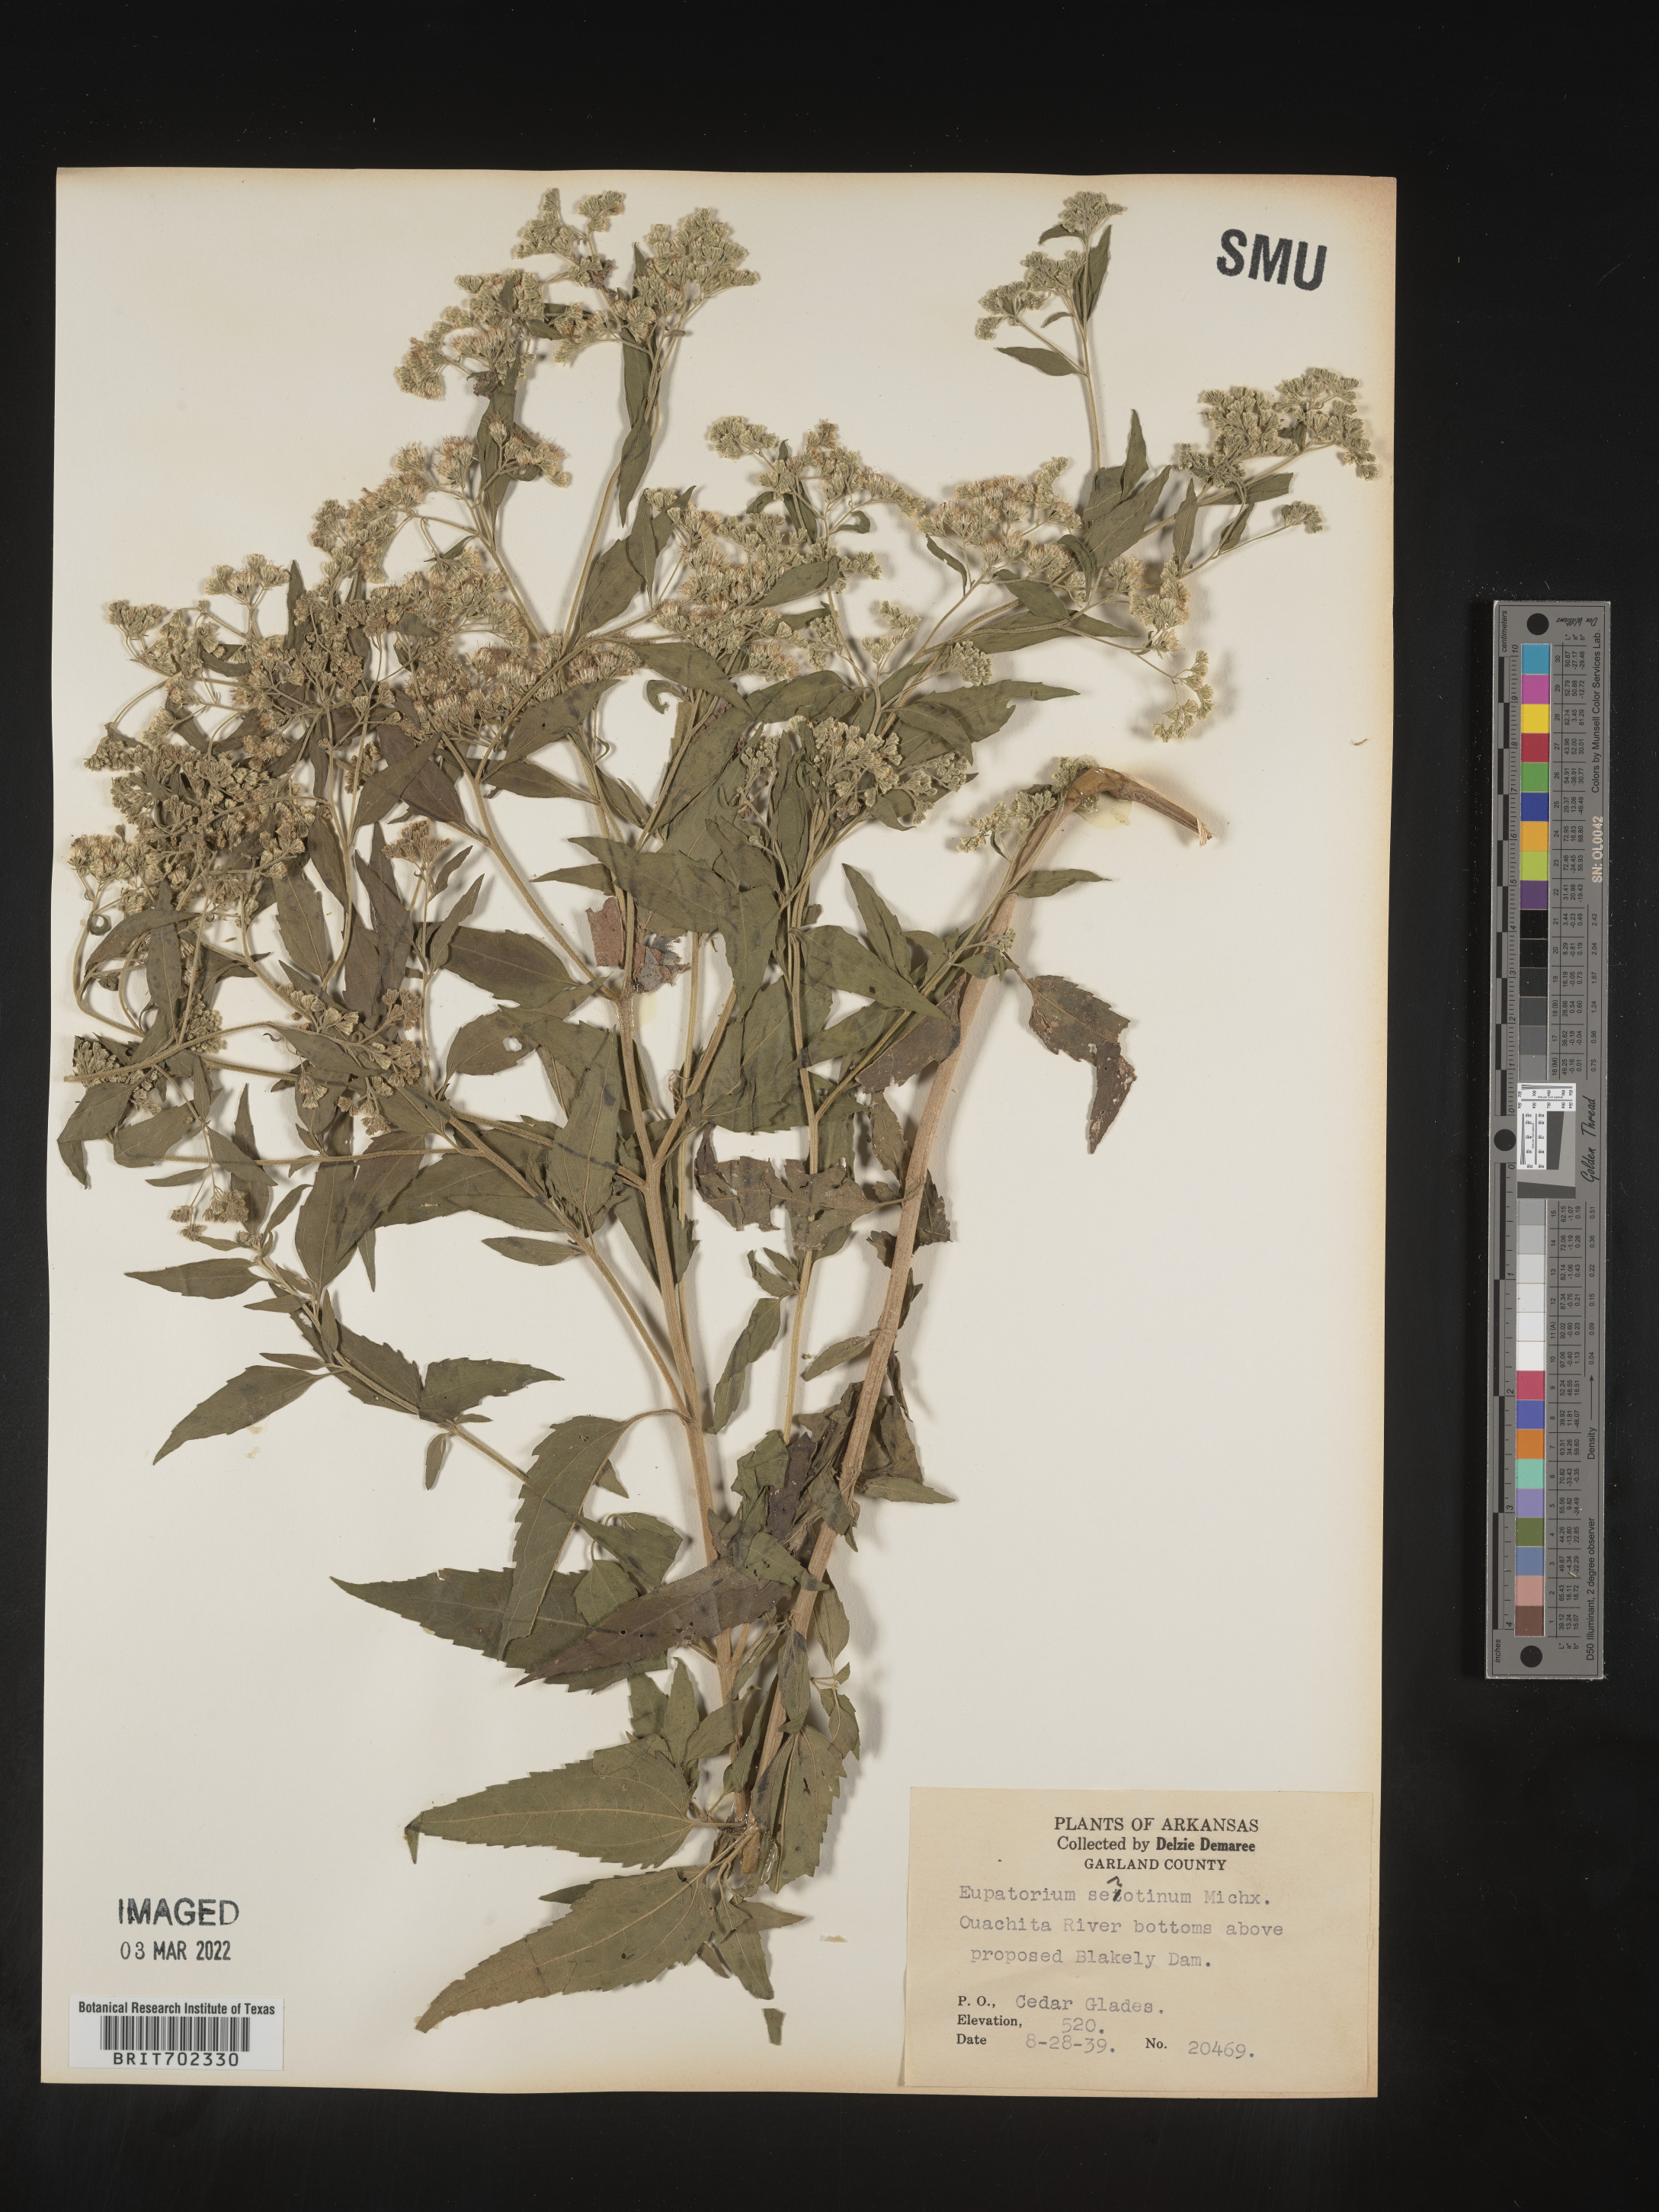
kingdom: Plantae
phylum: Tracheophyta
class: Magnoliopsida
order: Asterales
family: Asteraceae
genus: Eupatorium
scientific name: Eupatorium serotinum
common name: Late boneset
